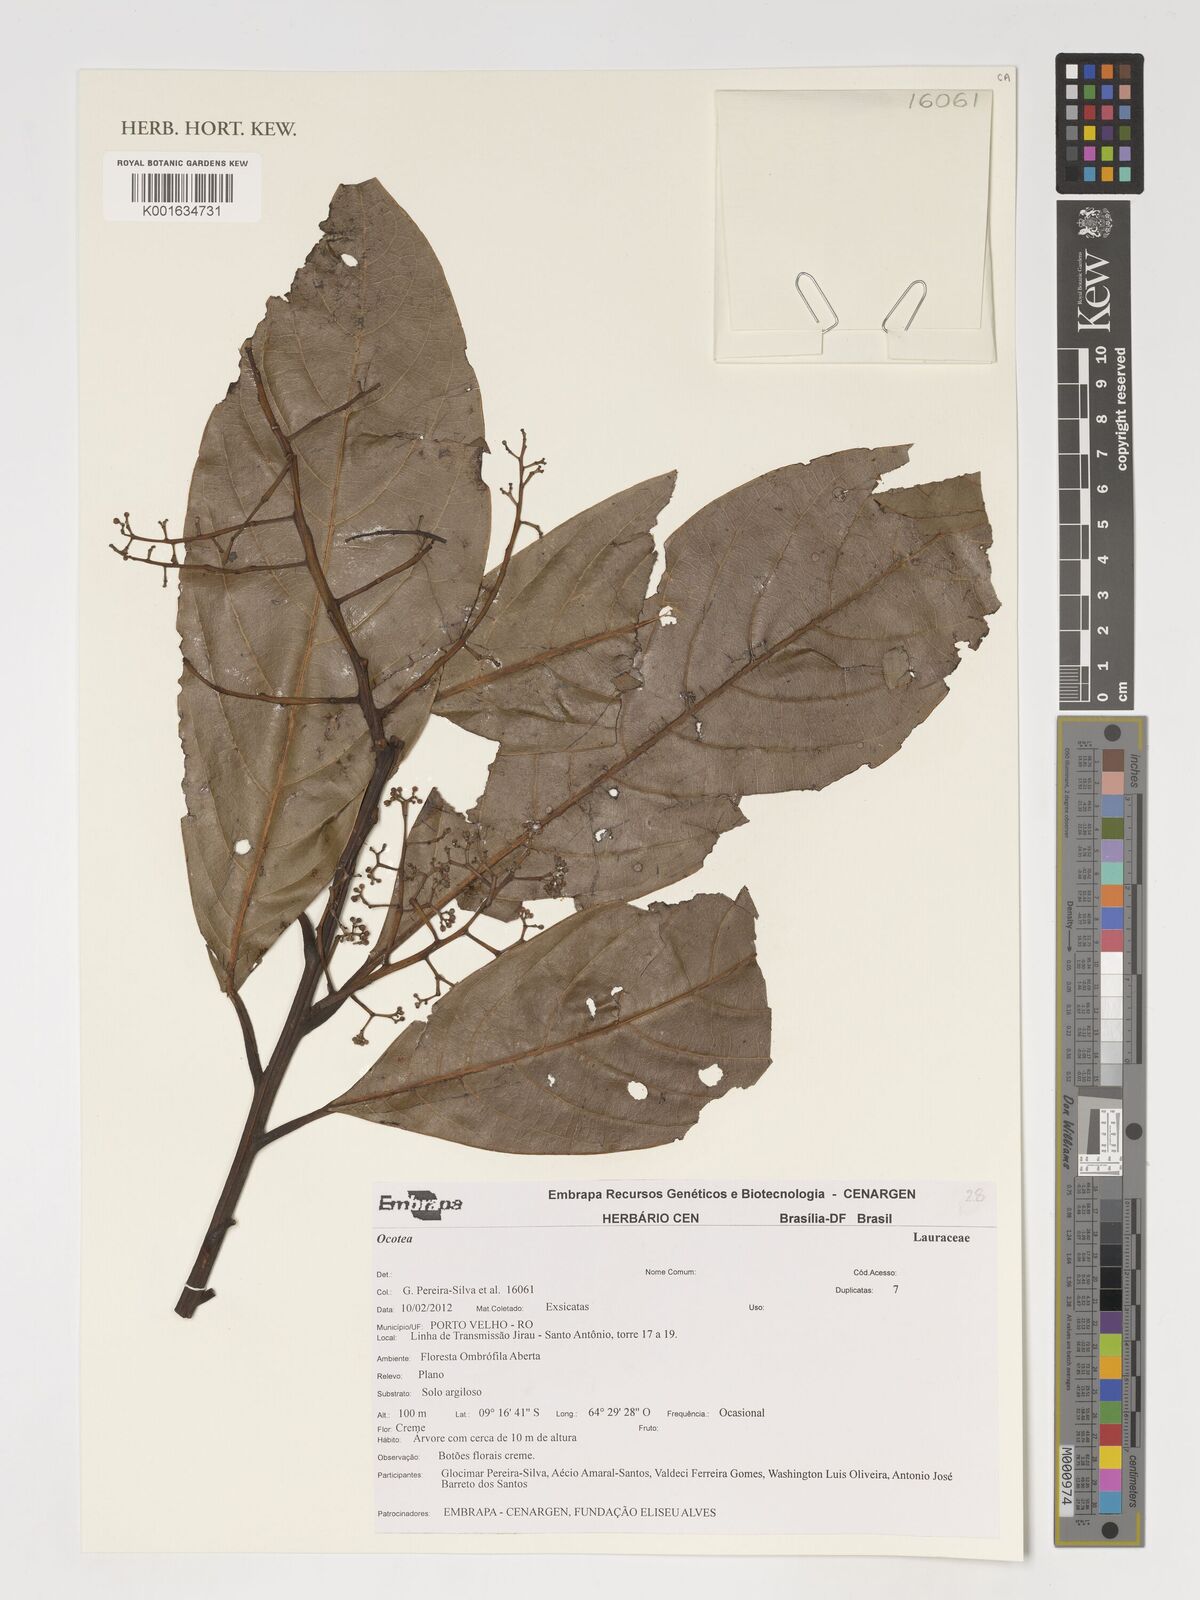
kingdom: Plantae
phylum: Tracheophyta
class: Magnoliopsida
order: Laurales
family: Lauraceae
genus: Ocotea
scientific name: Ocotea
